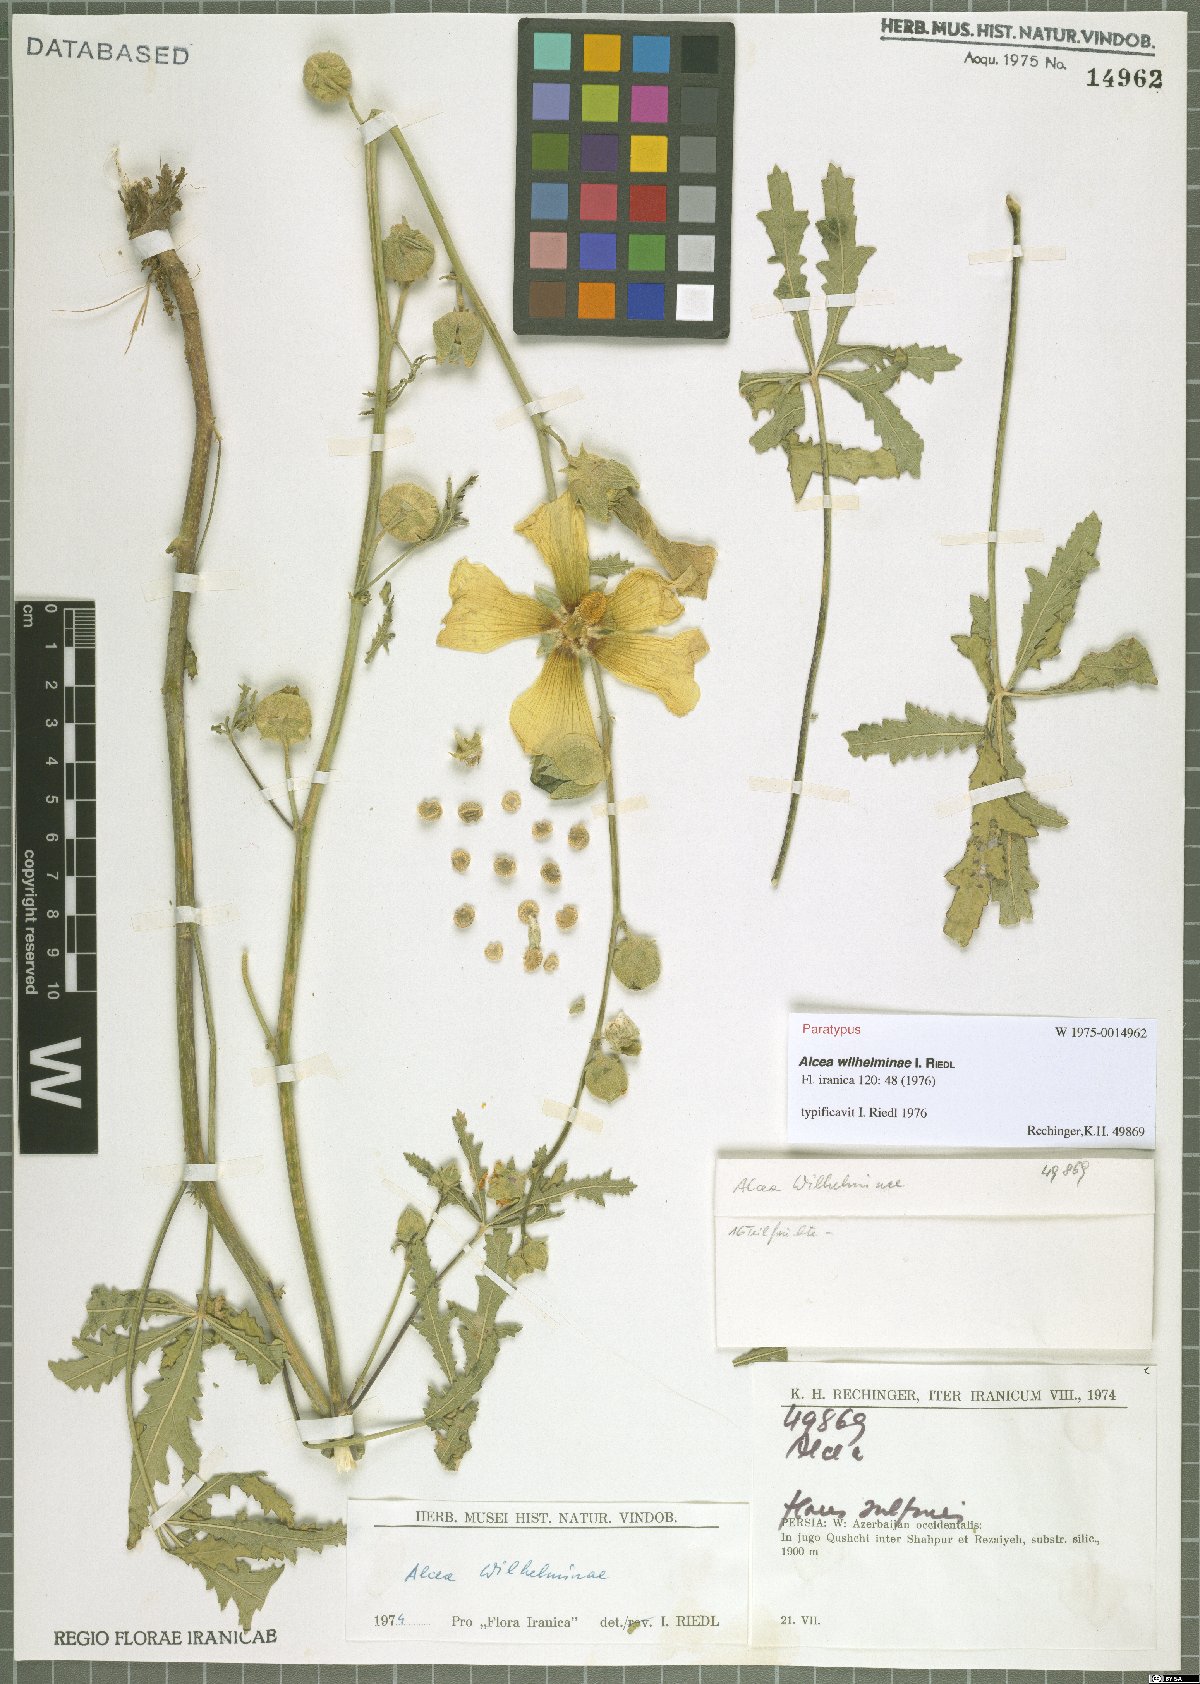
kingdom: Plantae
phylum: Tracheophyta
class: Magnoliopsida
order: Malvales
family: Malvaceae
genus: Alcea
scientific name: Alcea wilhelminae
